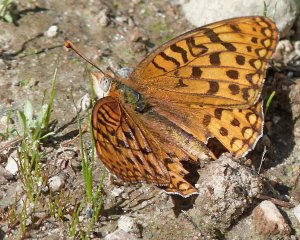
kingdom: Animalia
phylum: Arthropoda
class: Insecta
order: Lepidoptera
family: Nymphalidae
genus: Speyeria
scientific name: Speyeria zerene
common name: Zerene Fritillary
